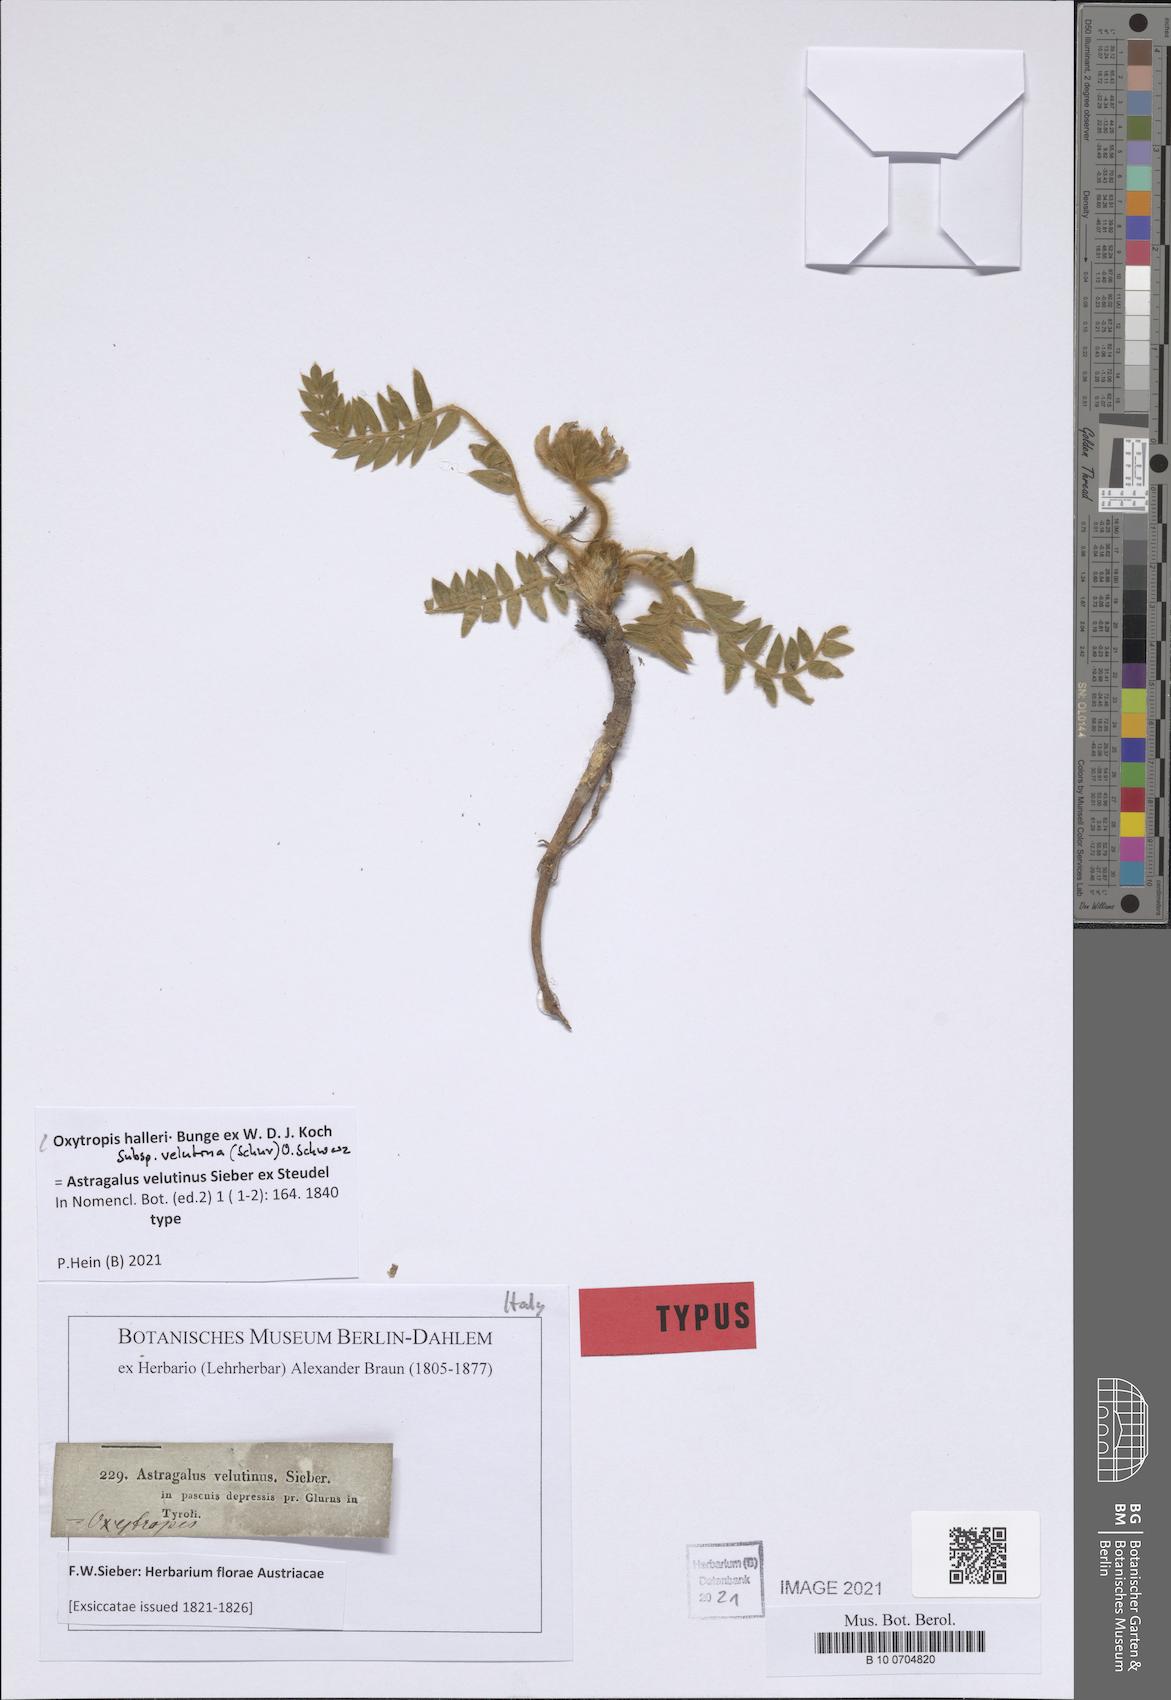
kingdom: Plantae
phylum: Tracheophyta
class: Magnoliopsida
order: Fabales
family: Fabaceae
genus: Oxytropis
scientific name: Oxytropis halleri
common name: Purple oxytropis
